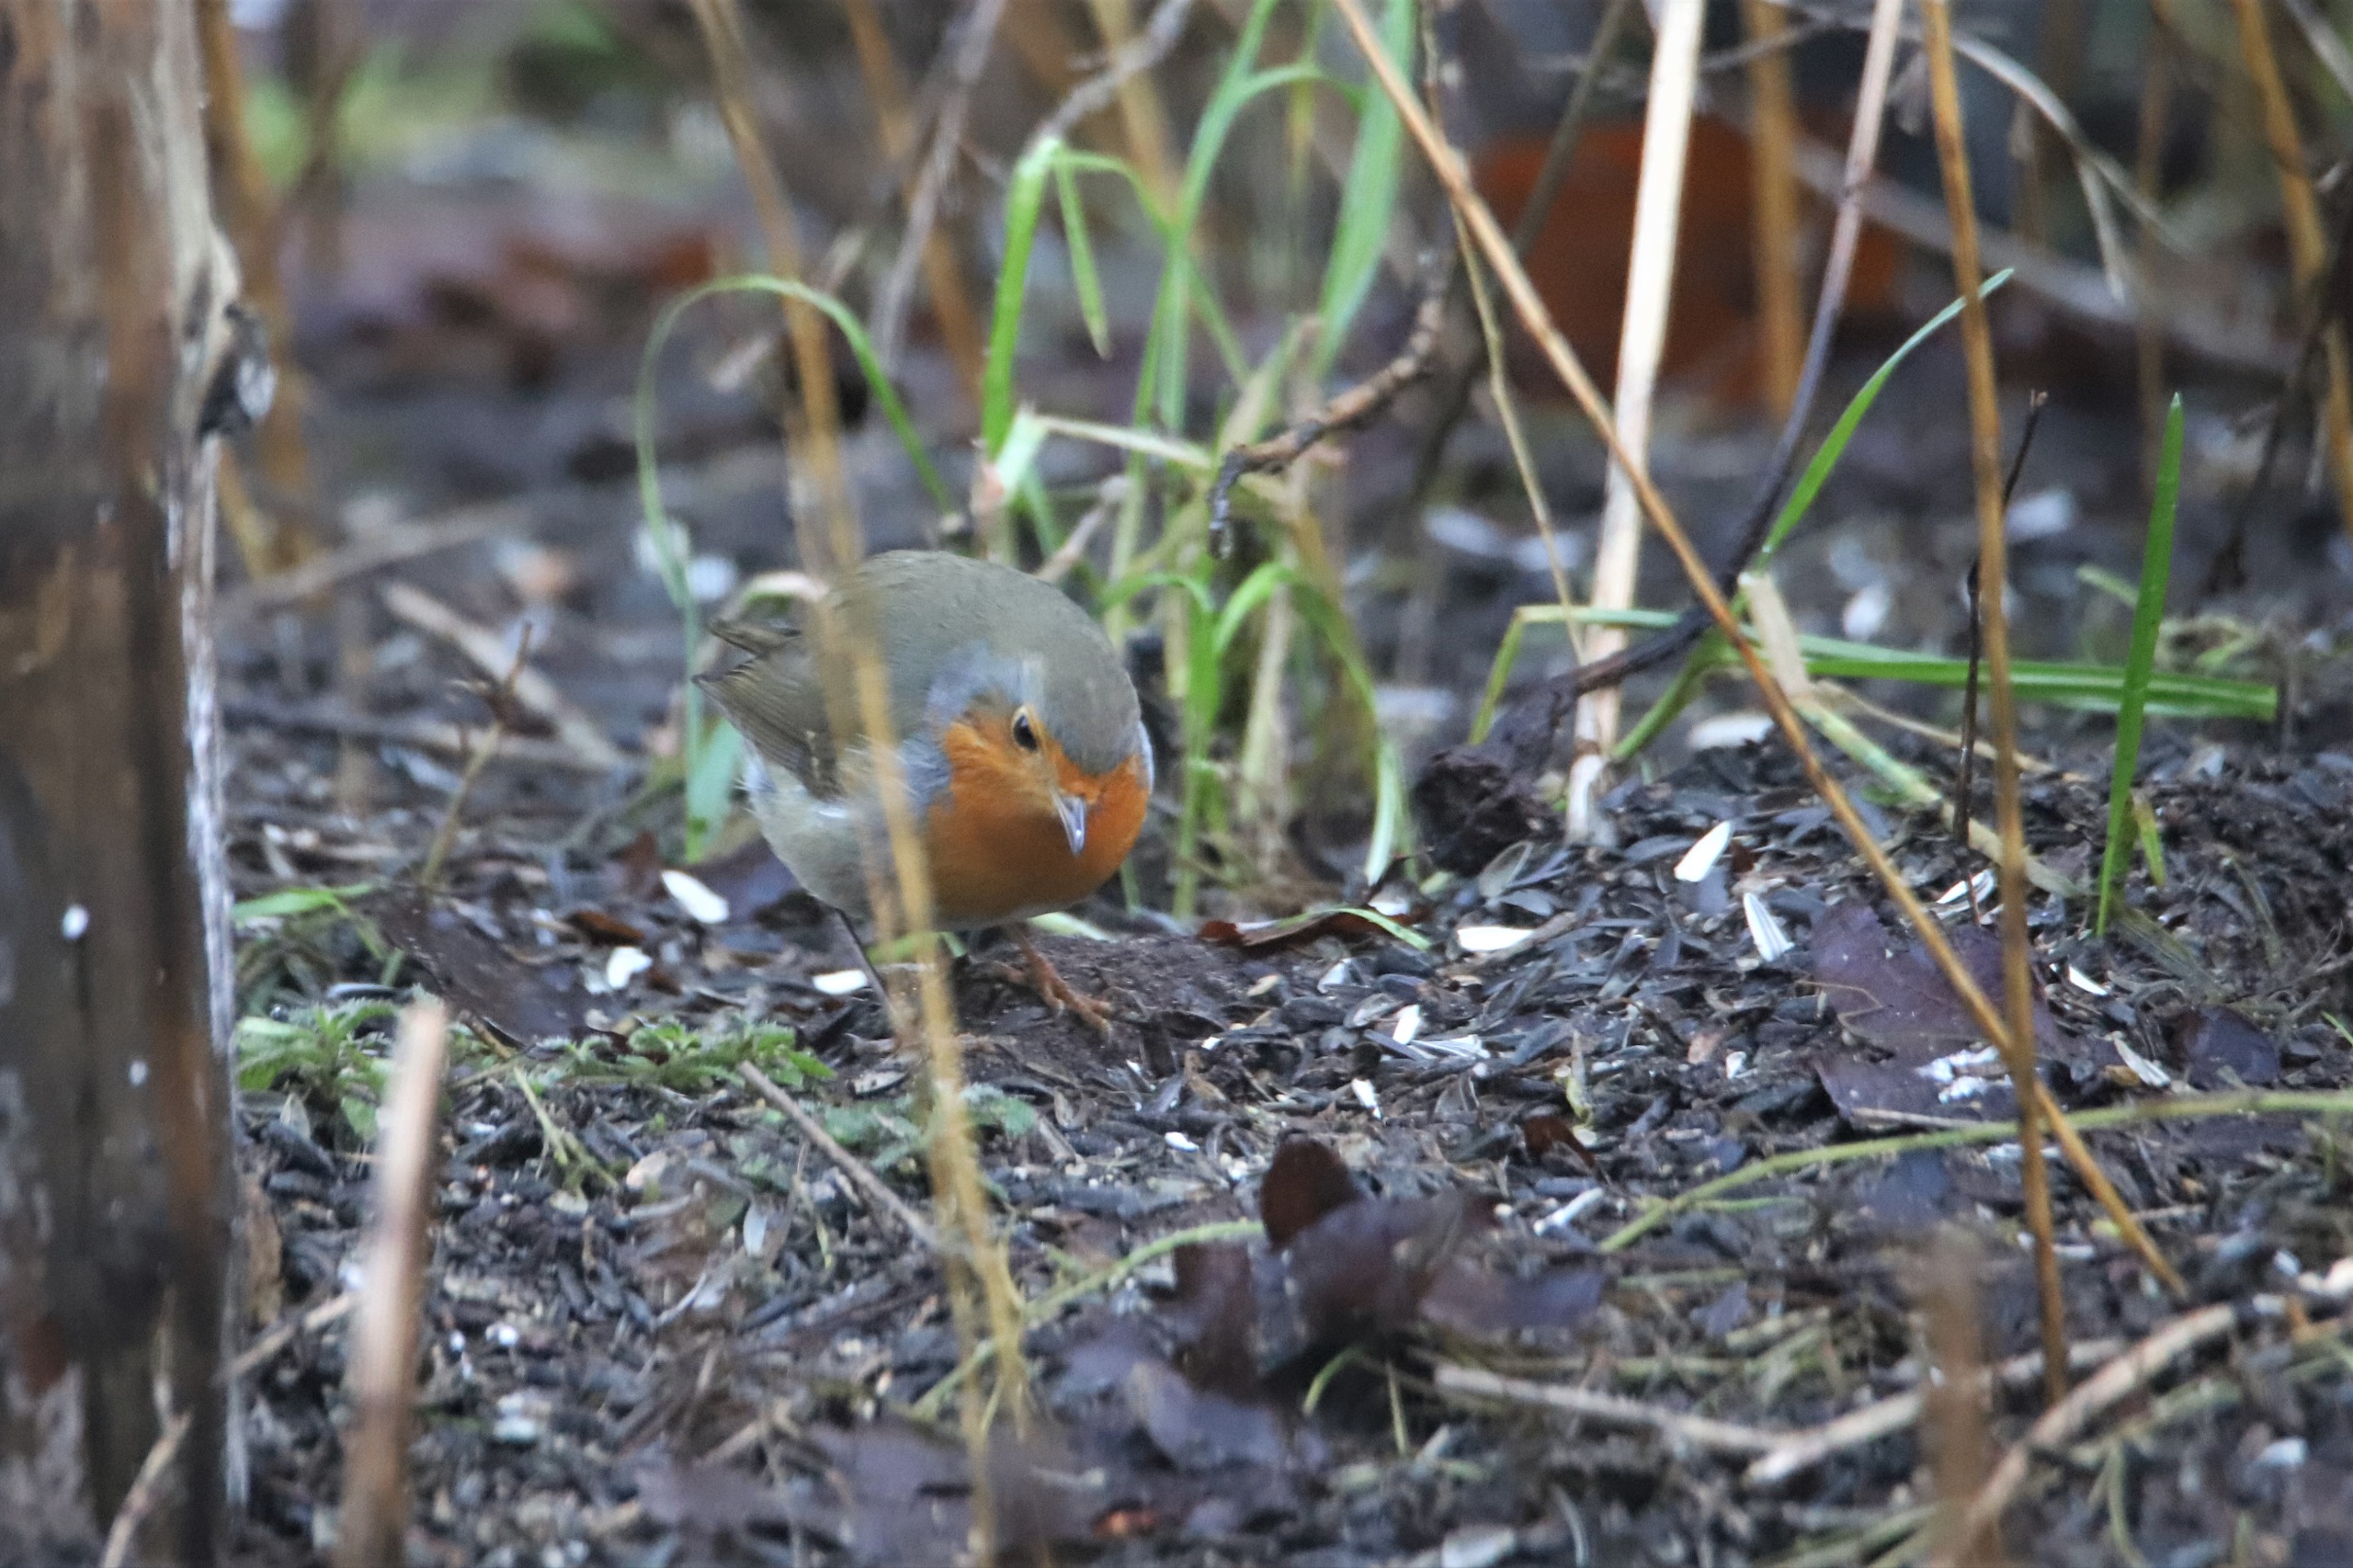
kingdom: Animalia
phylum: Chordata
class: Aves
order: Passeriformes
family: Muscicapidae
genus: Erithacus
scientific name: Erithacus rubecula
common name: Rødhals/rødkælk
